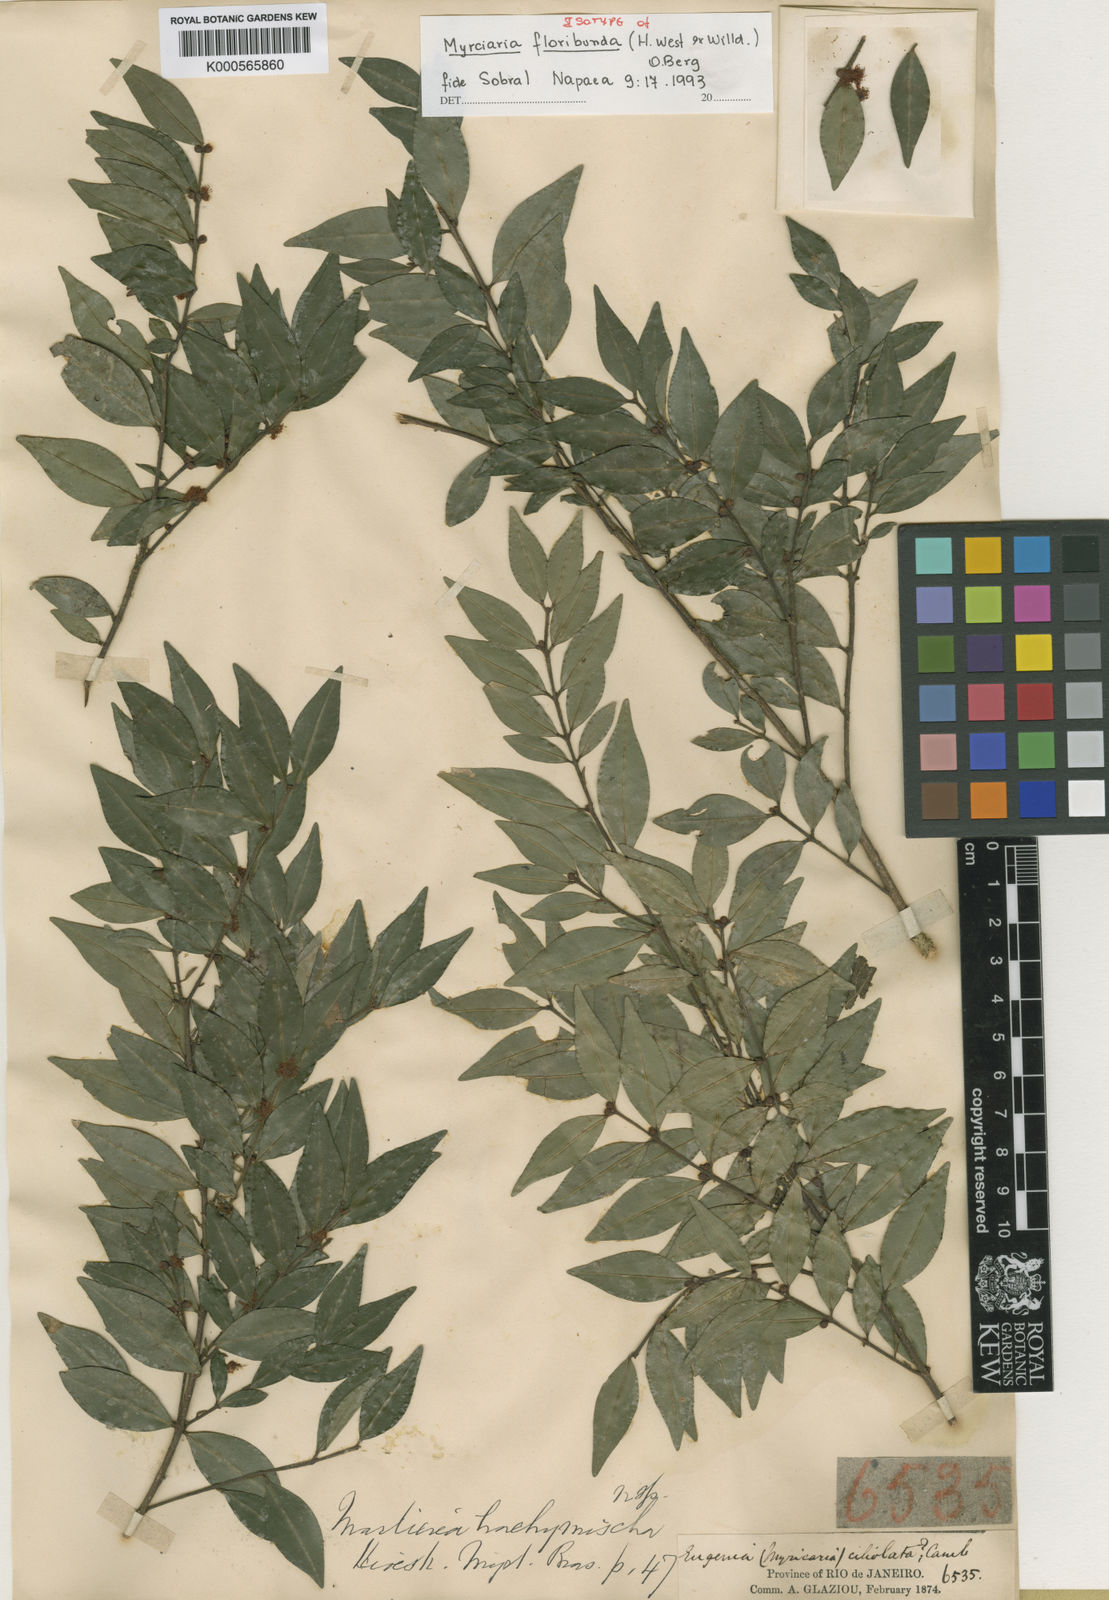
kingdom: Plantae
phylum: Tracheophyta
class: Magnoliopsida
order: Myrtales
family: Myrtaceae
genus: Myrciaria
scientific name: Myrciaria floribunda
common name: Guavaberry
